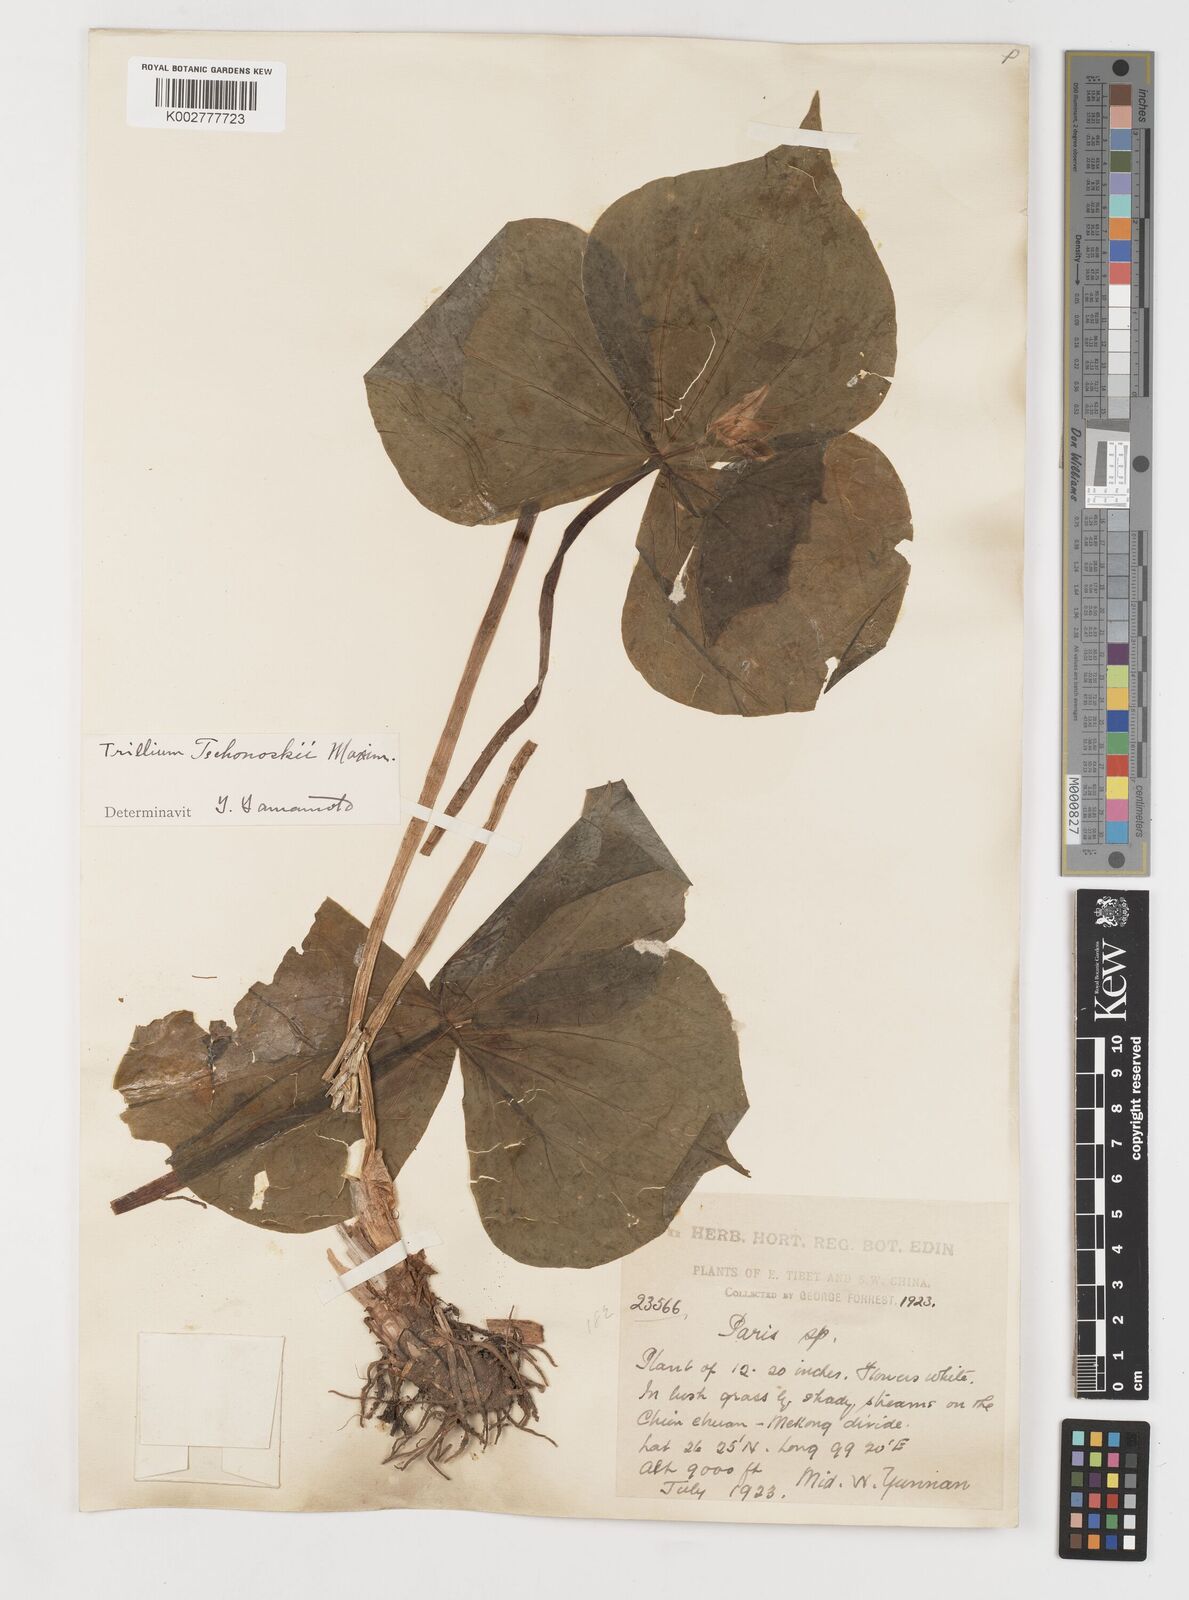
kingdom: Plantae
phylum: Tracheophyta
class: Liliopsida
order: Liliales
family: Melanthiaceae
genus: Trillium
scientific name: Trillium tschonoskii
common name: A pearl on head
